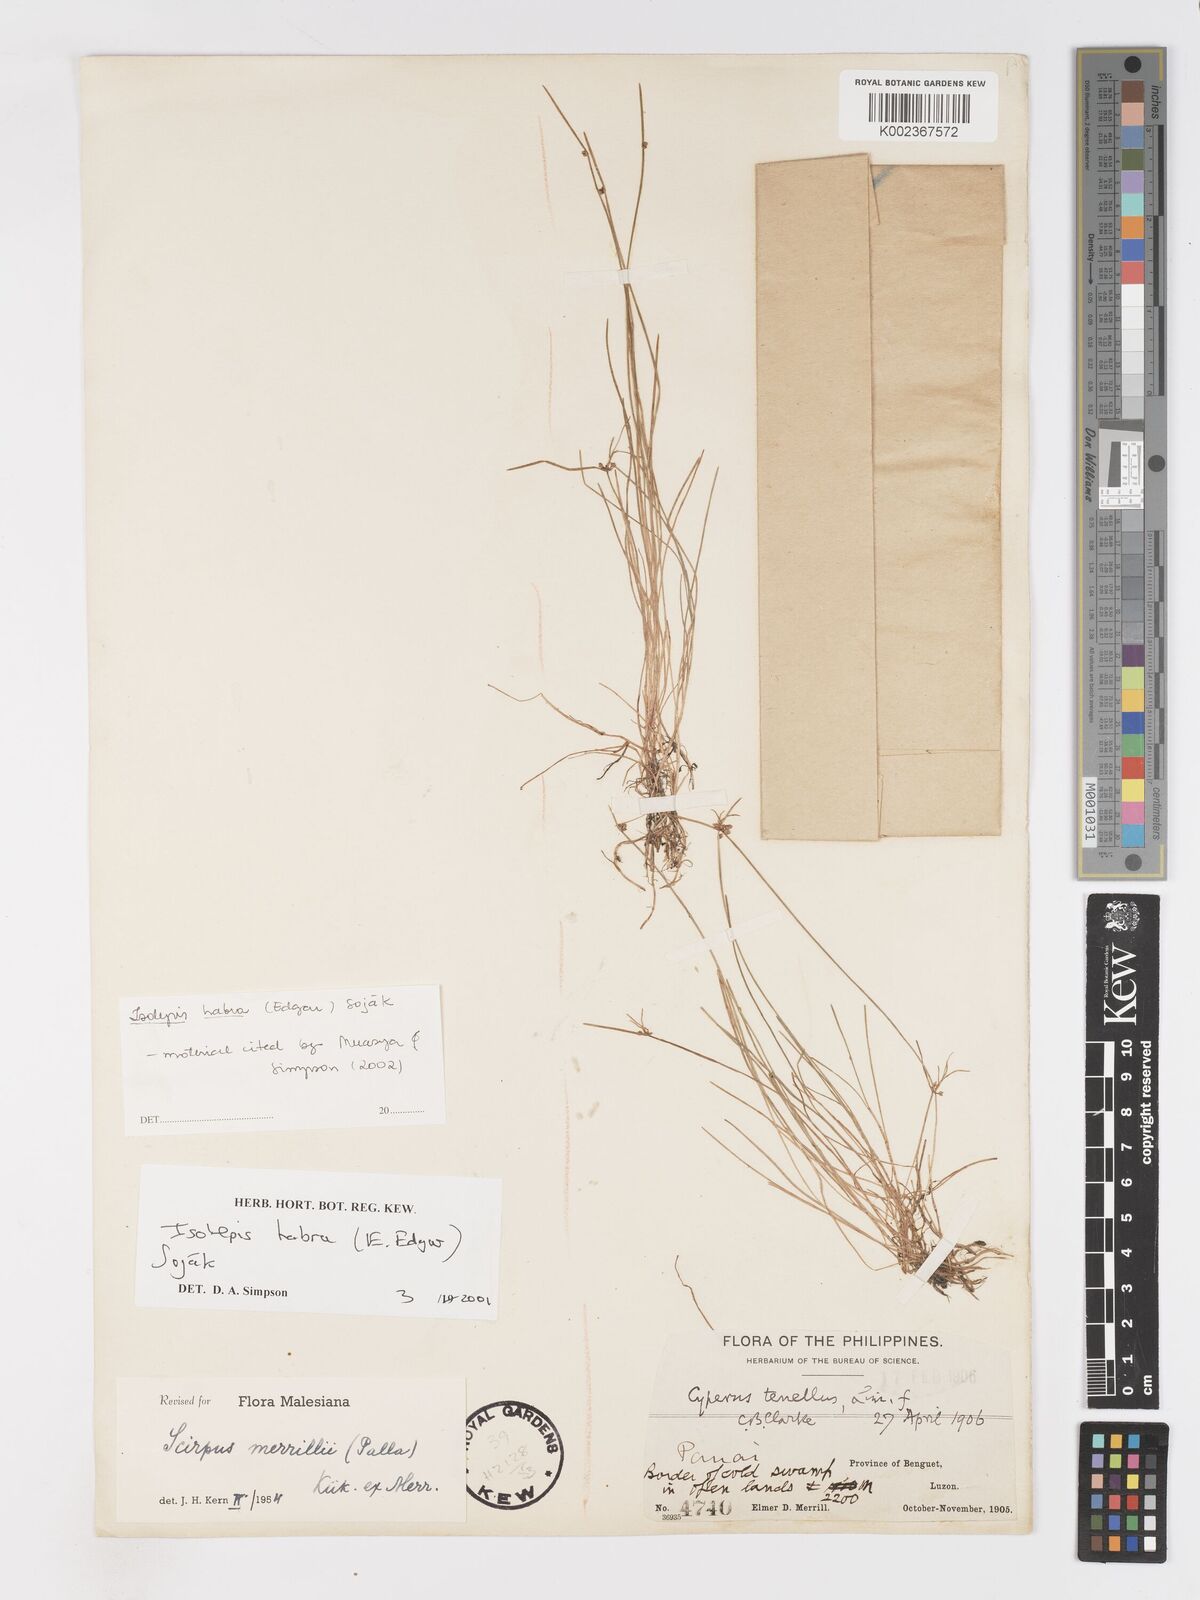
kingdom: Plantae
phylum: Tracheophyta
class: Liliopsida
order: Poales
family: Cyperaceae
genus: Isolepis
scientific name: Isolepis habra
